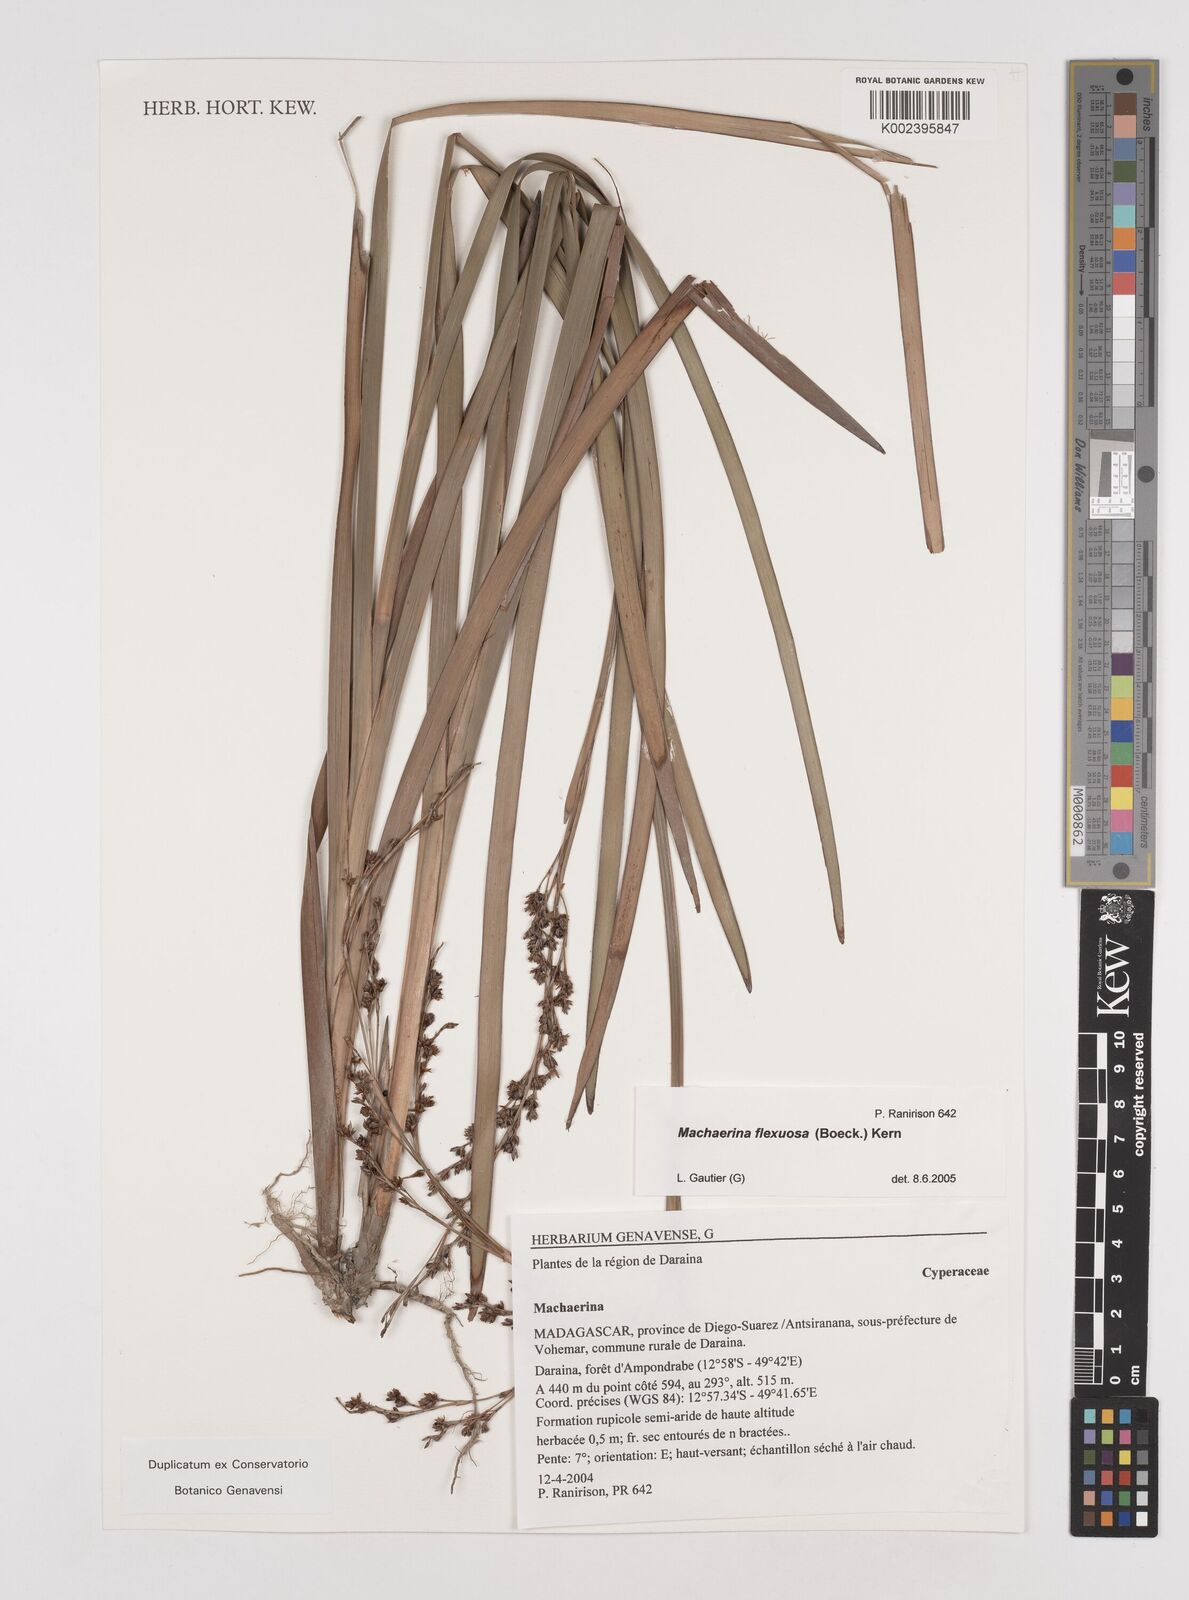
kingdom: Plantae
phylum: Tracheophyta
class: Liliopsida
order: Poales
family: Cyperaceae
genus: Machaerina
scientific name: Machaerina flexuosa
